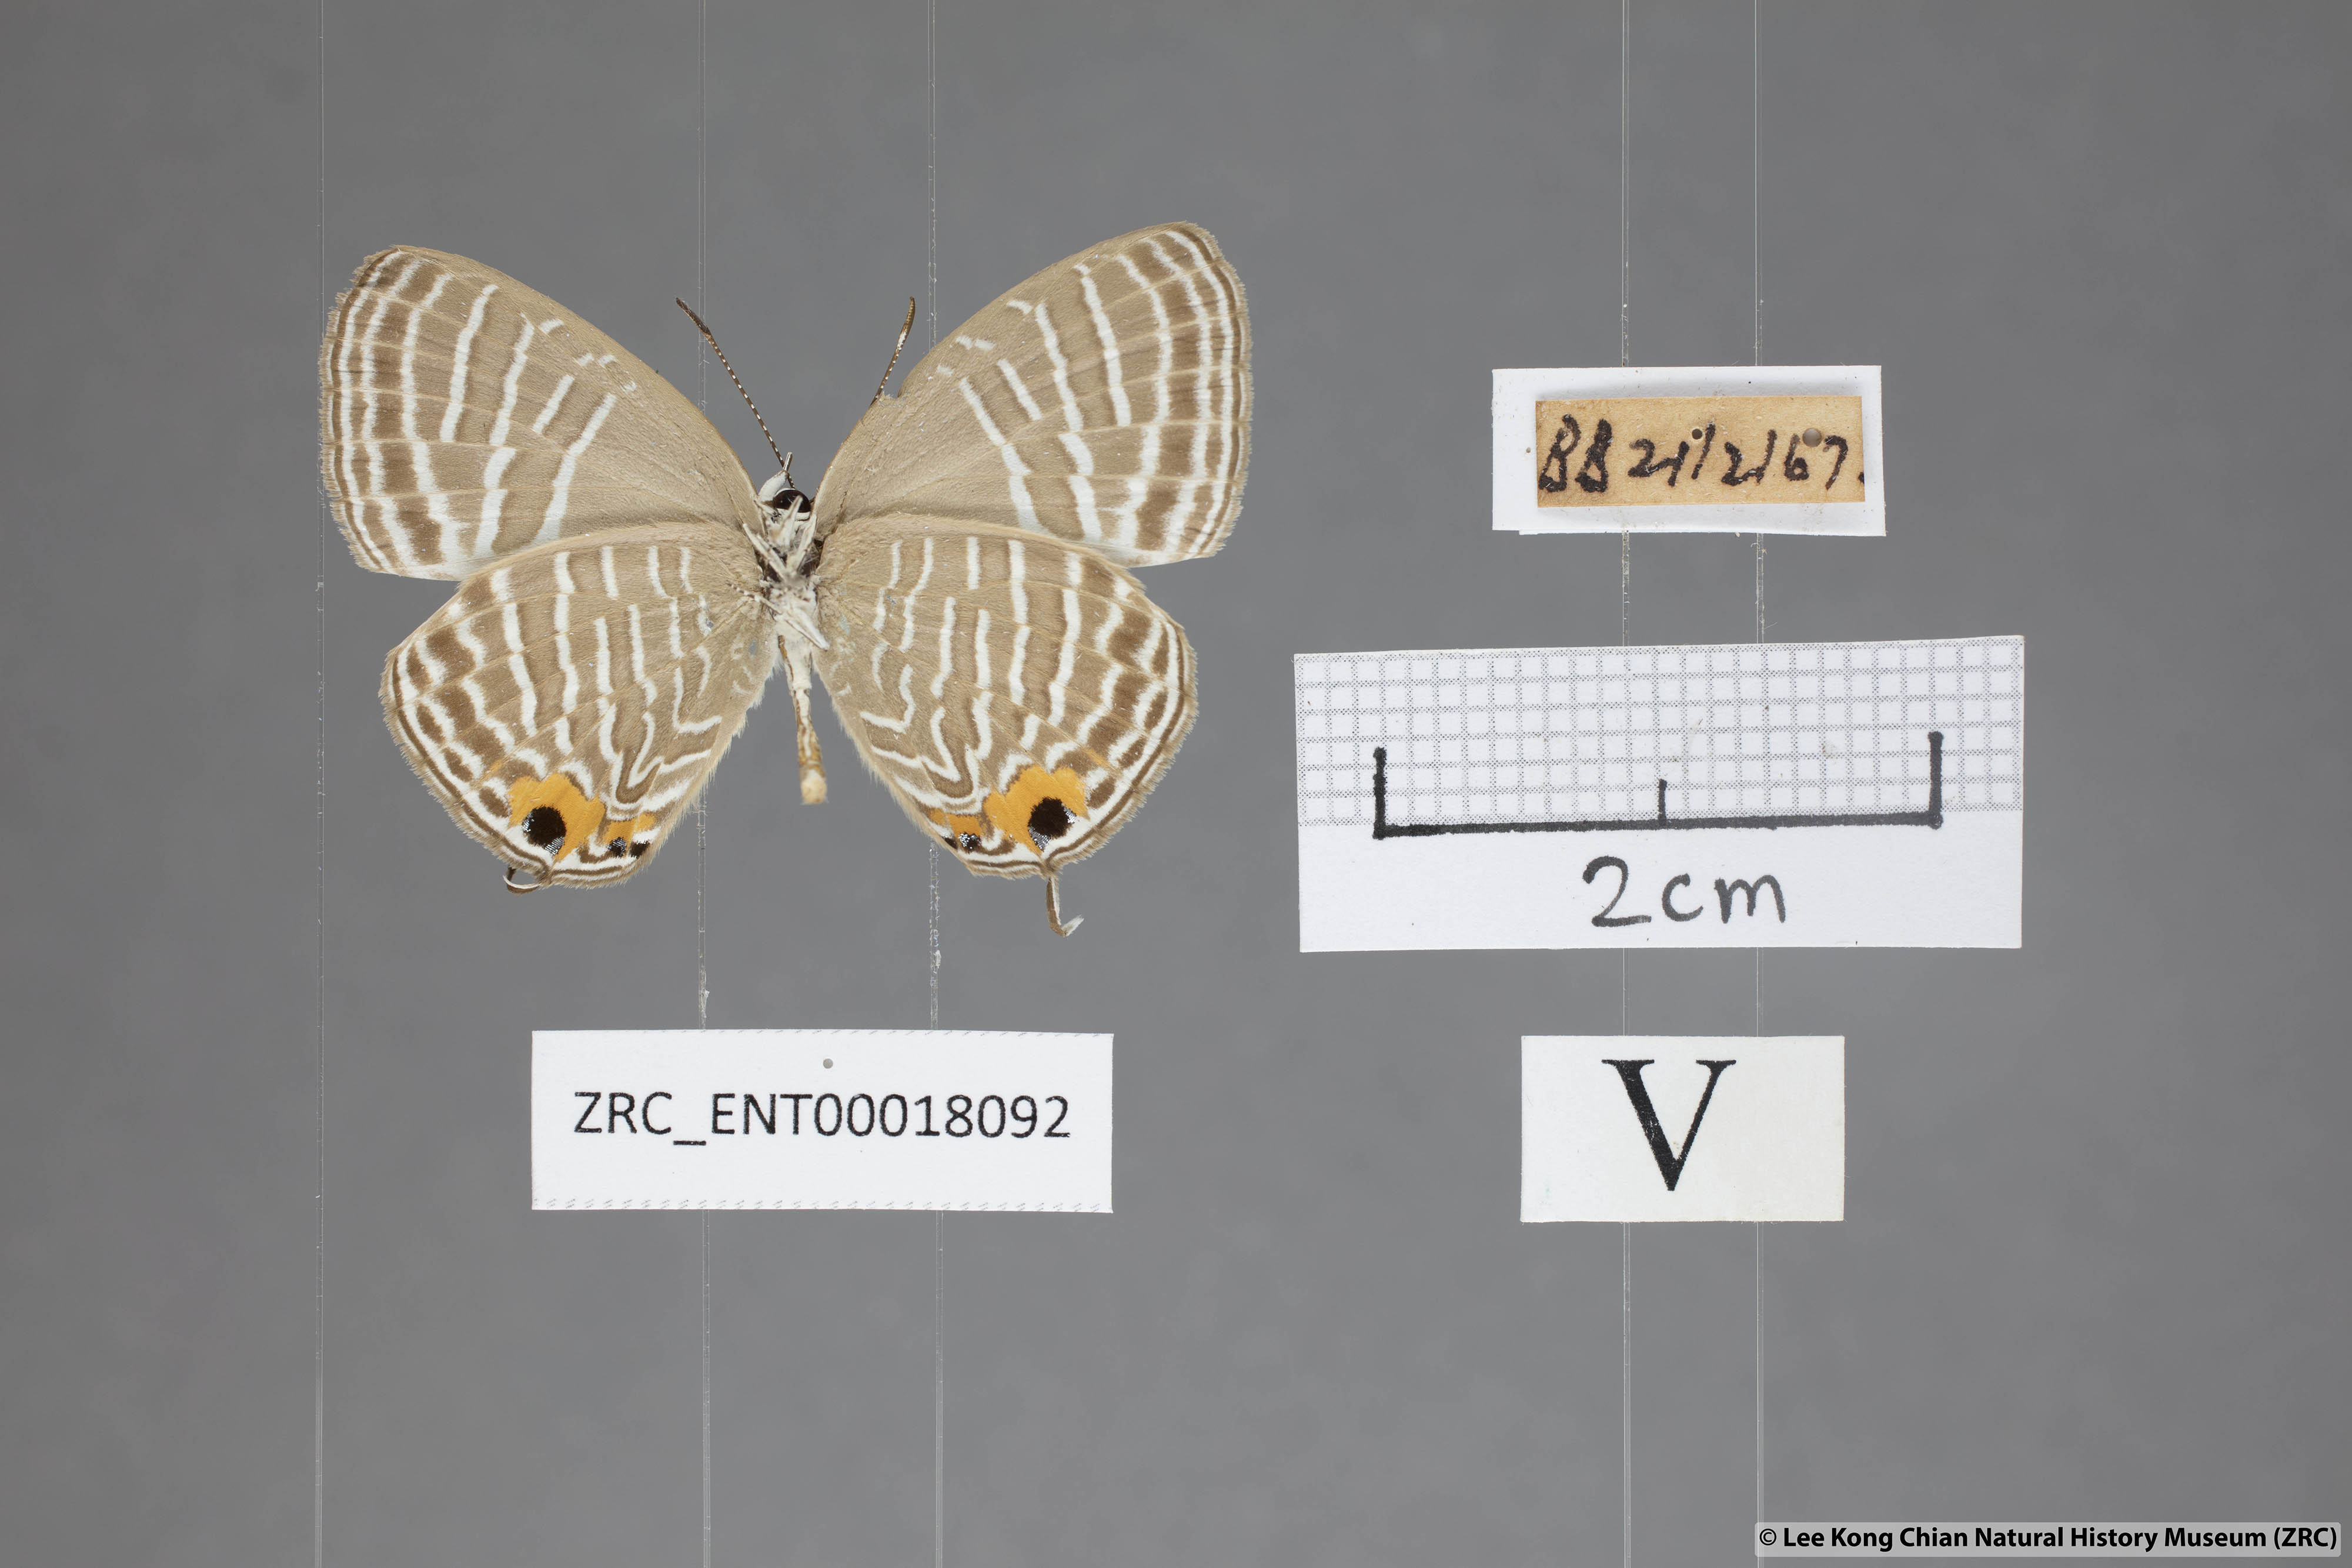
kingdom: Animalia
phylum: Arthropoda
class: Insecta
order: Lepidoptera
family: Lycaenidae
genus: Jamides
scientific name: Jamides celeno
